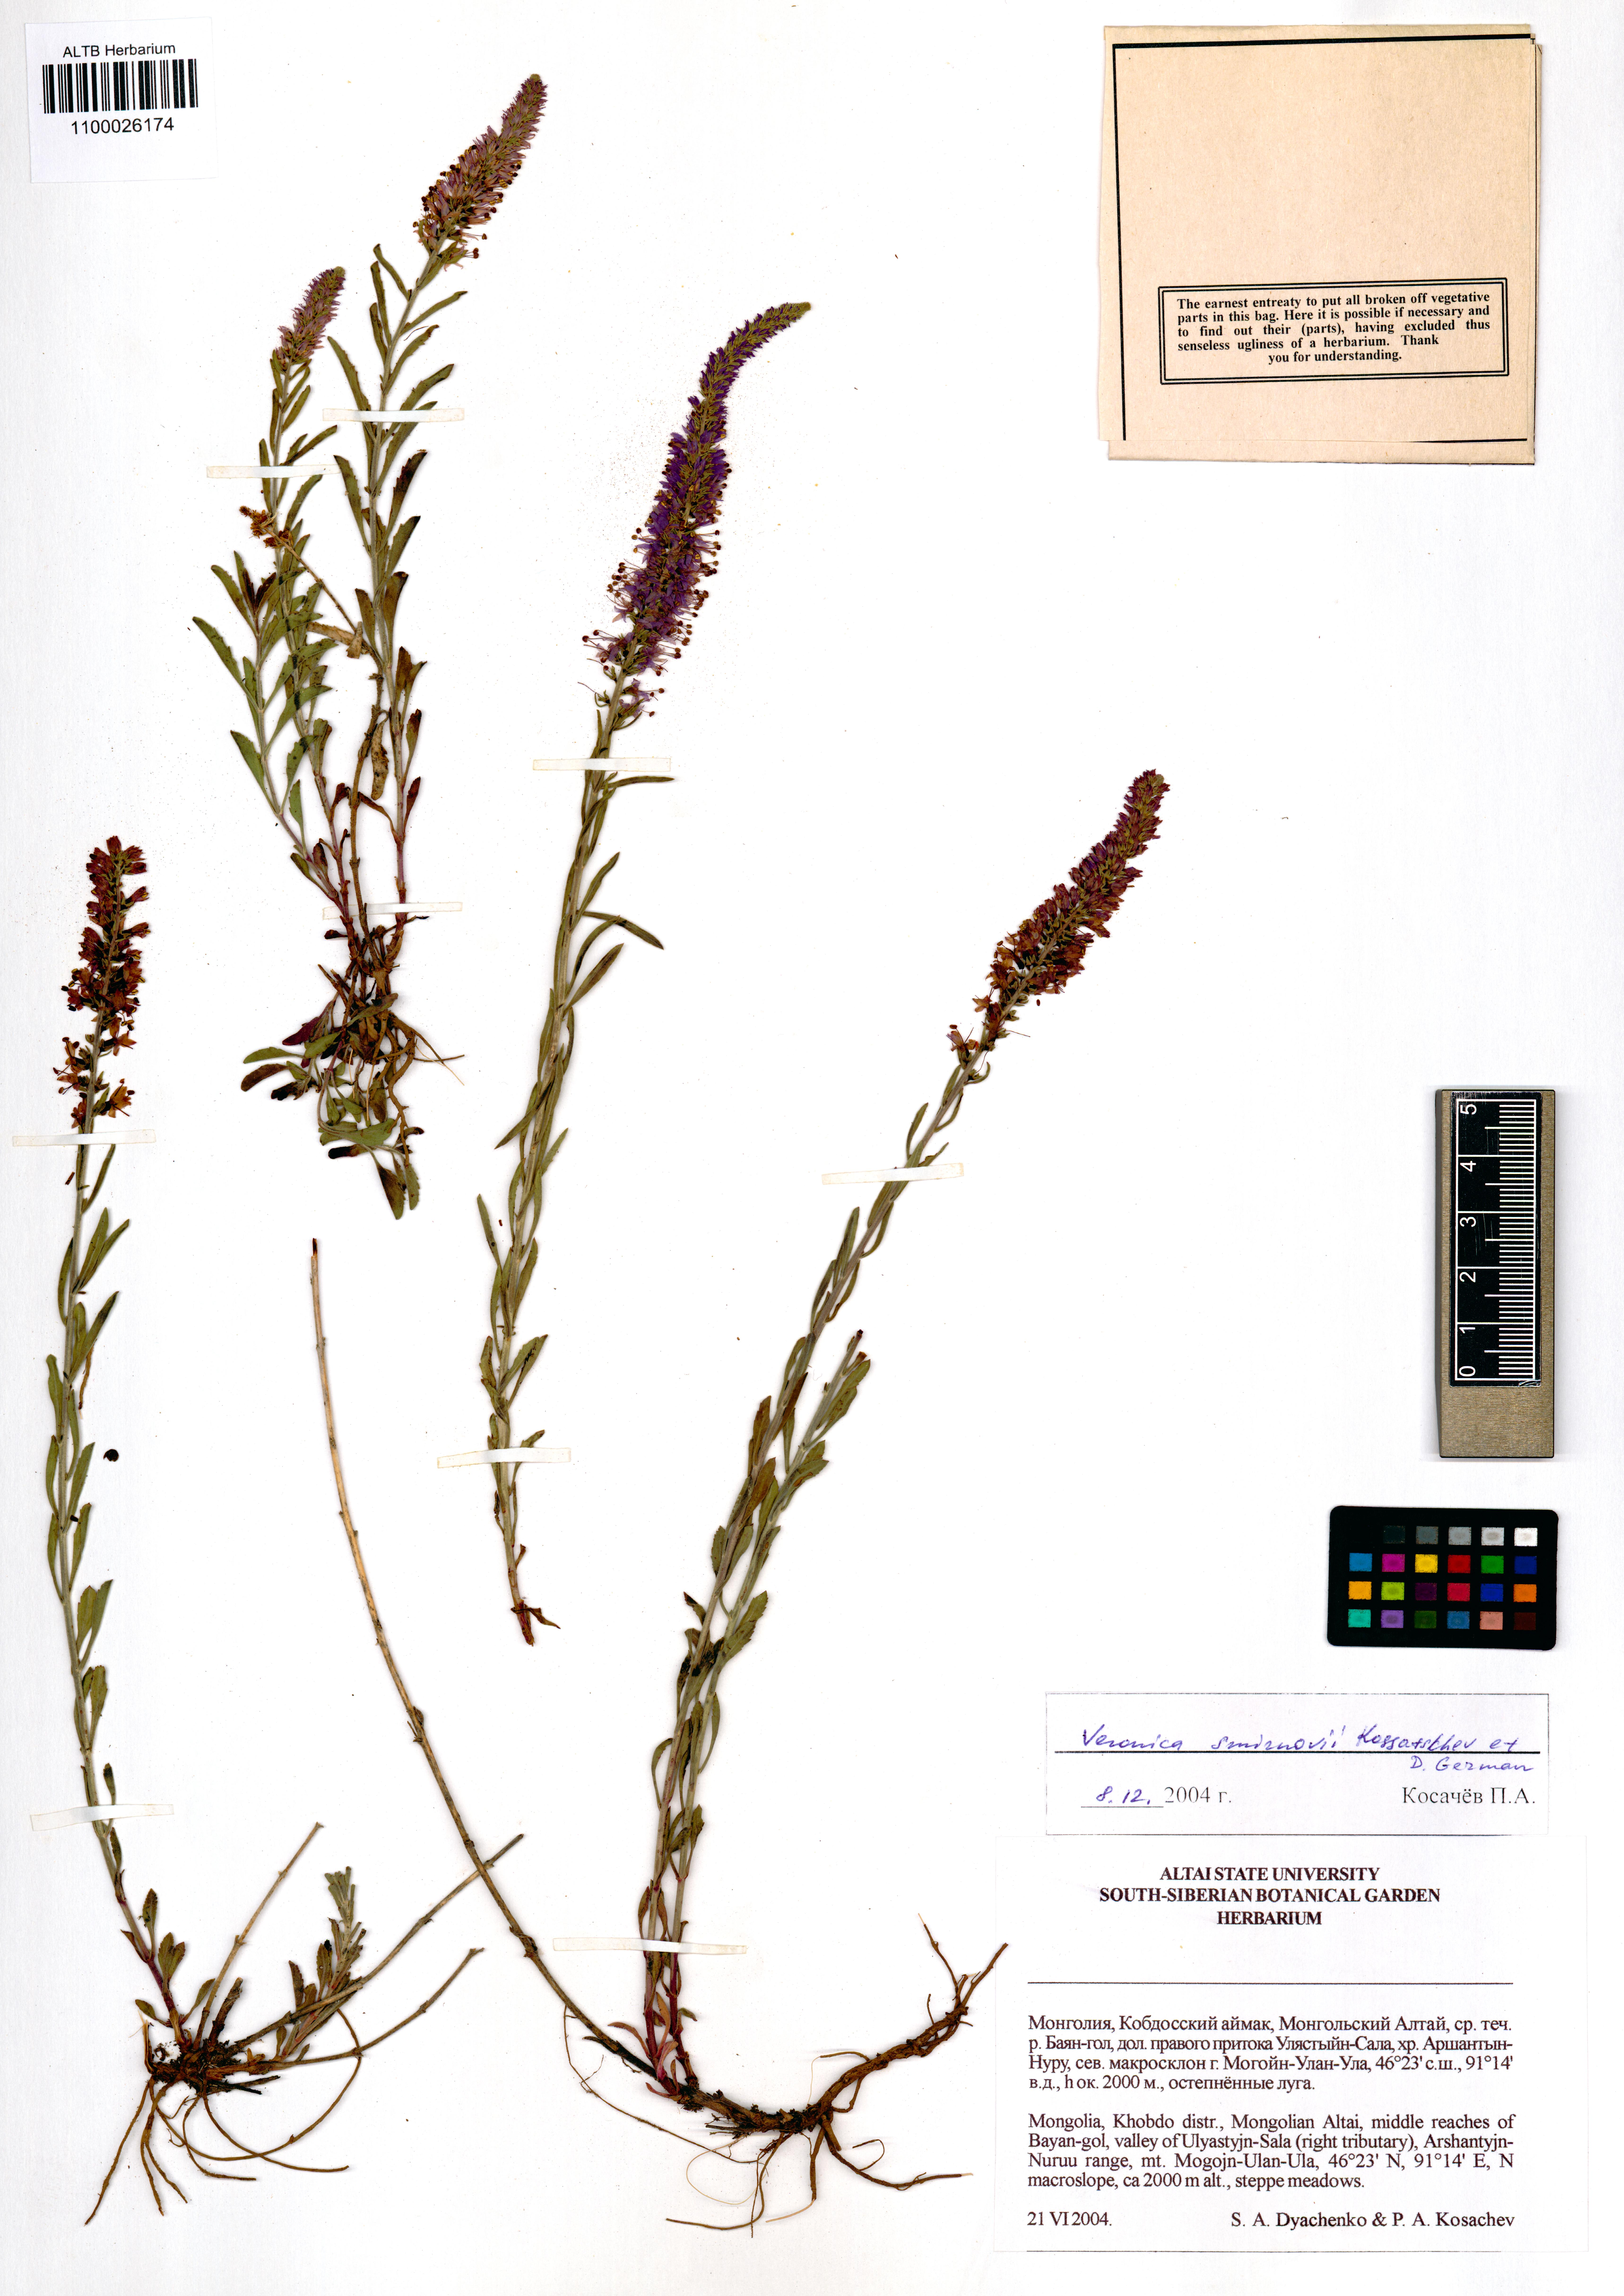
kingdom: Plantae
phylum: Tracheophyta
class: Magnoliopsida
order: Lamiales
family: Plantaginaceae
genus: Veronica
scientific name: Veronica smirnovii
